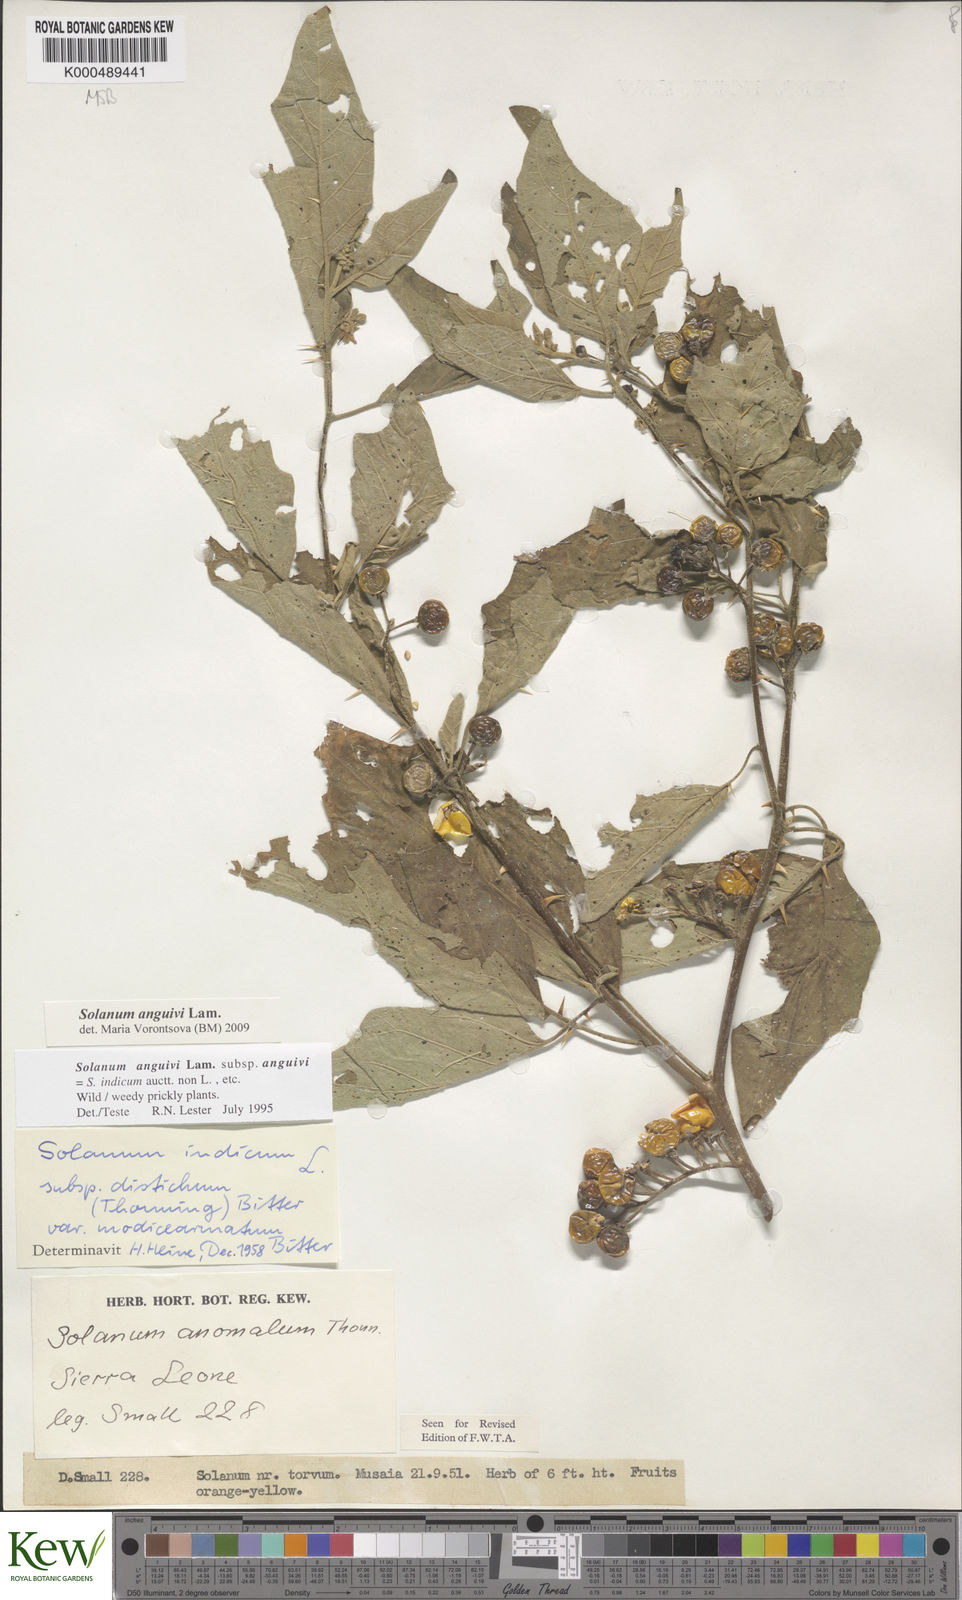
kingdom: Plantae
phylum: Tracheophyta
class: Magnoliopsida
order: Solanales
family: Solanaceae
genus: Solanum
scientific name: Solanum anguivi
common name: Forest bitterberry
